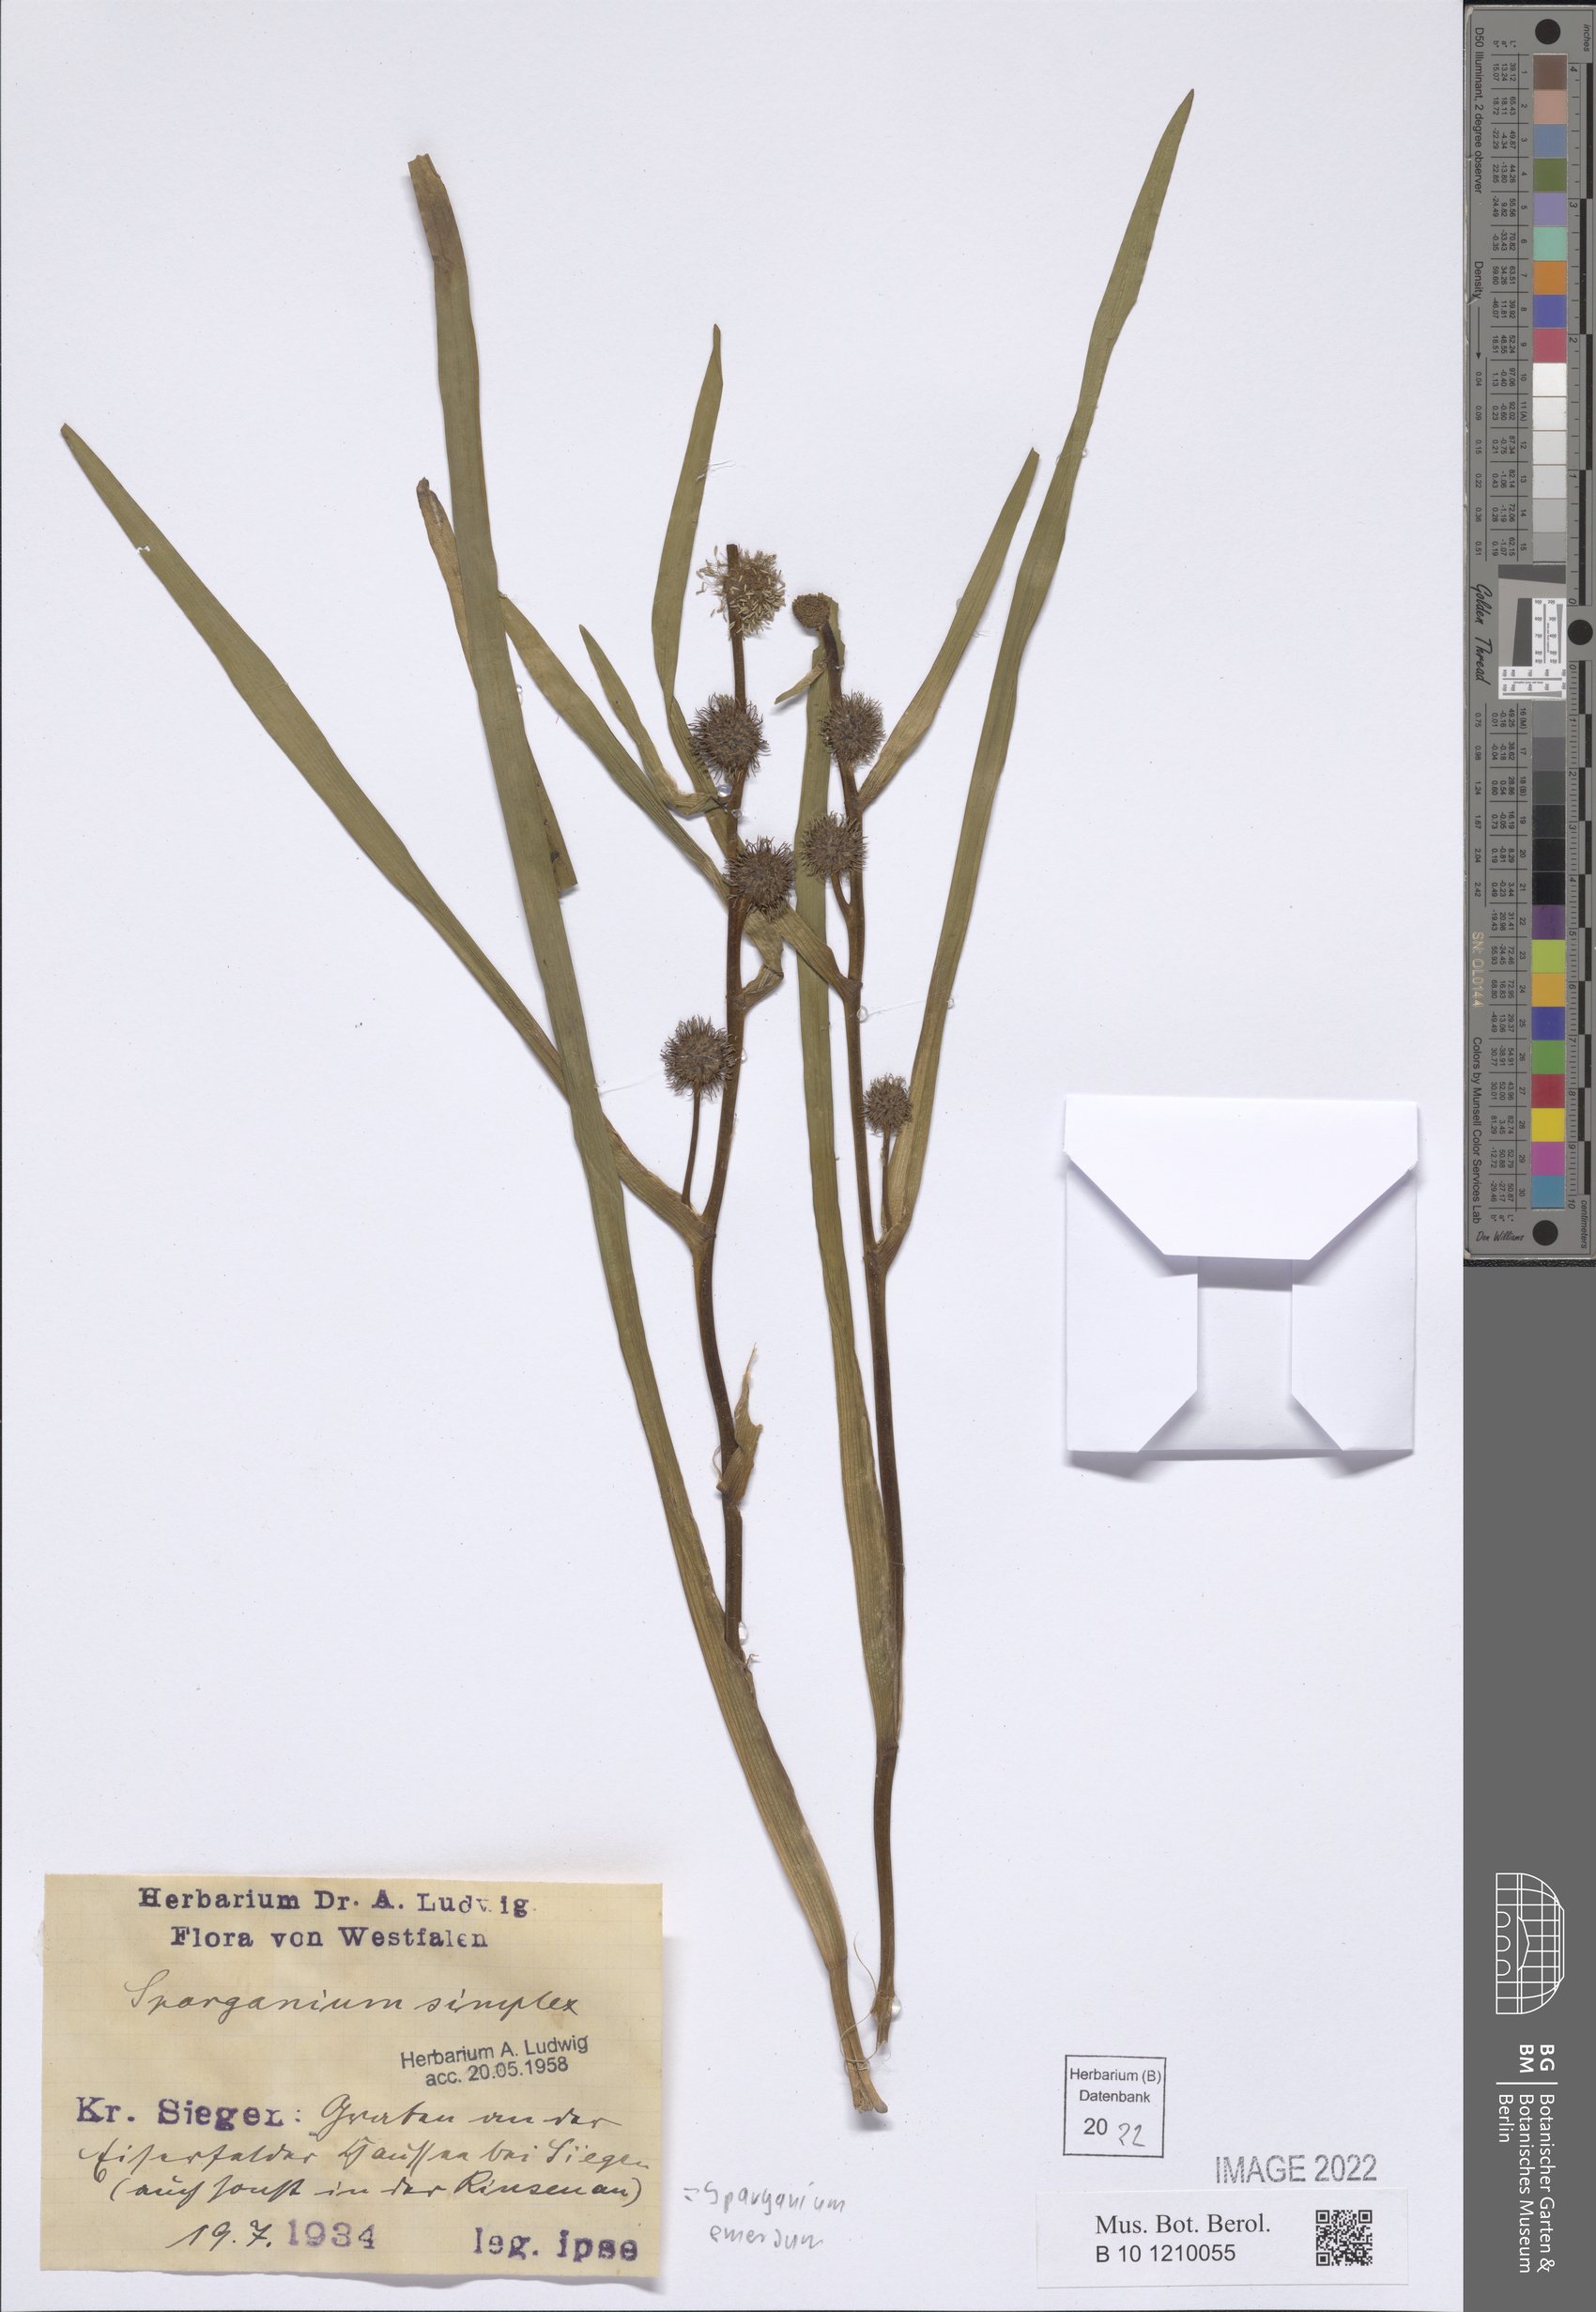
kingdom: Plantae
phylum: Tracheophyta
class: Liliopsida
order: Poales
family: Typhaceae
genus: Sparganium
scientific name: Sparganium emersum
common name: Unbranched bur-reed
